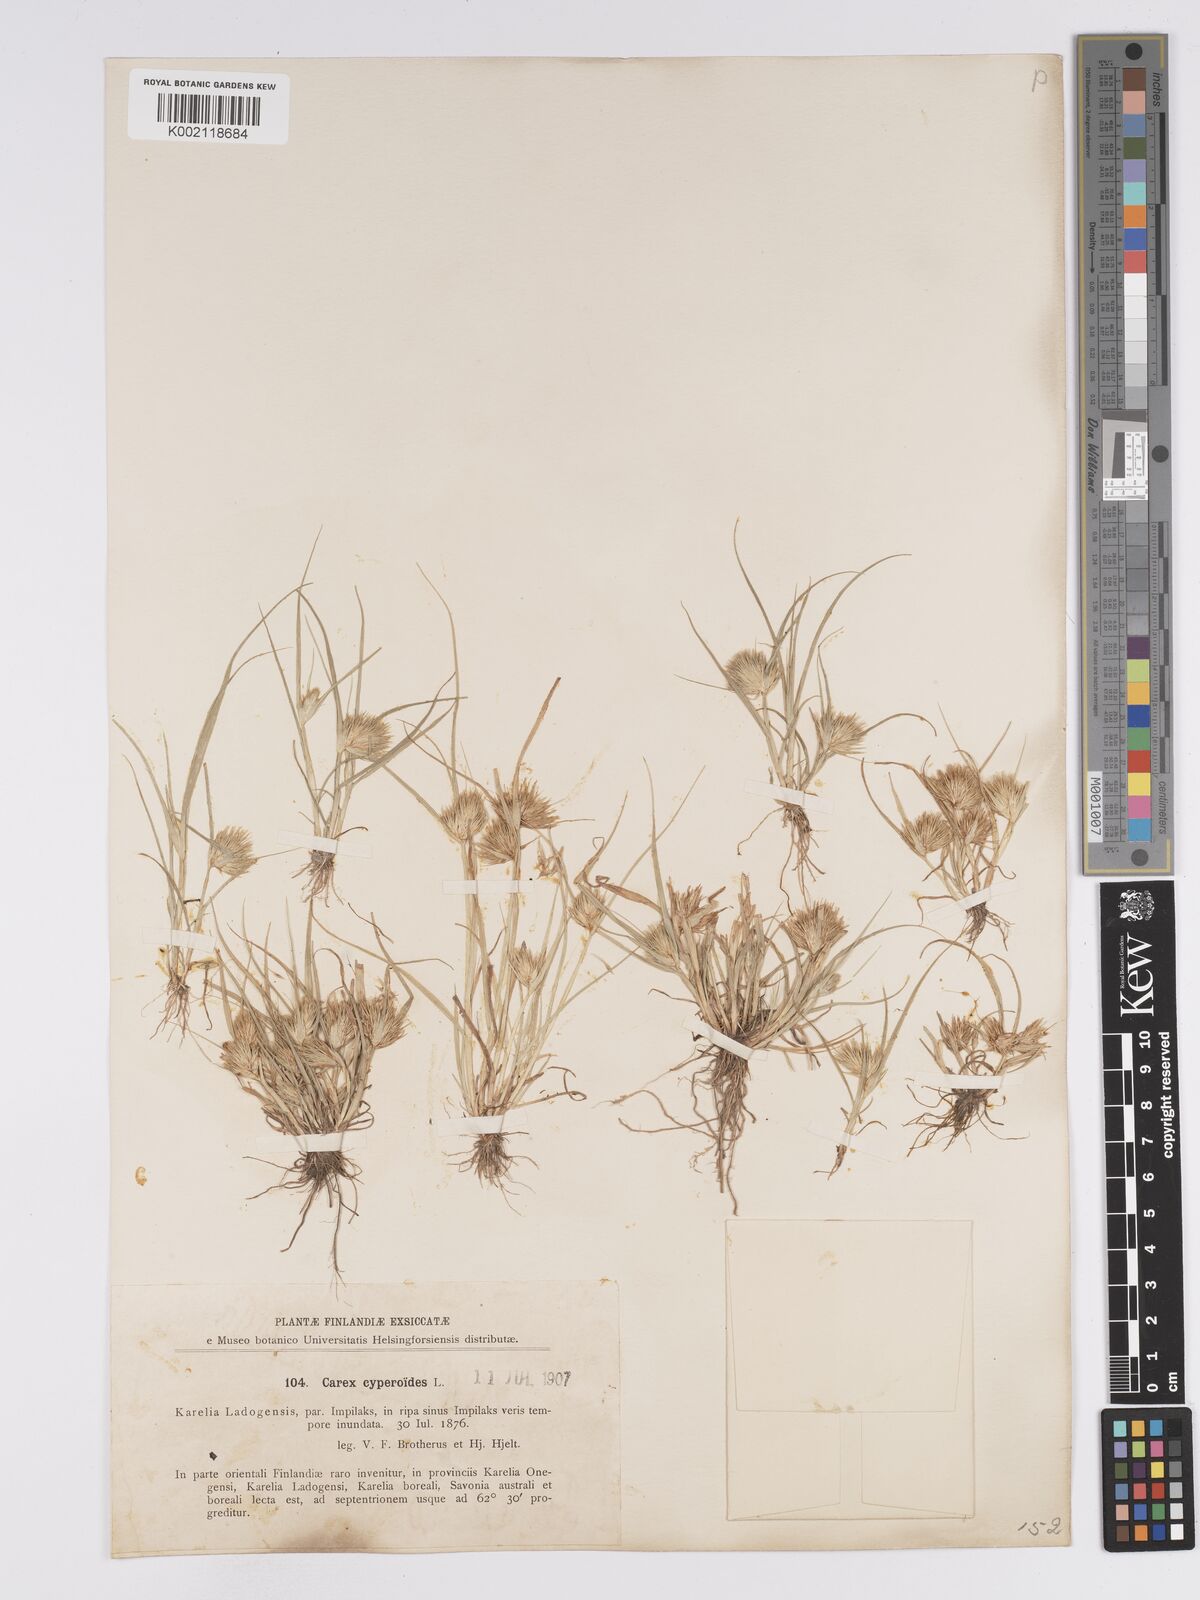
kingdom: Plantae
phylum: Tracheophyta
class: Liliopsida
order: Poales
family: Cyperaceae
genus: Carex
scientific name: Carex bohemica
